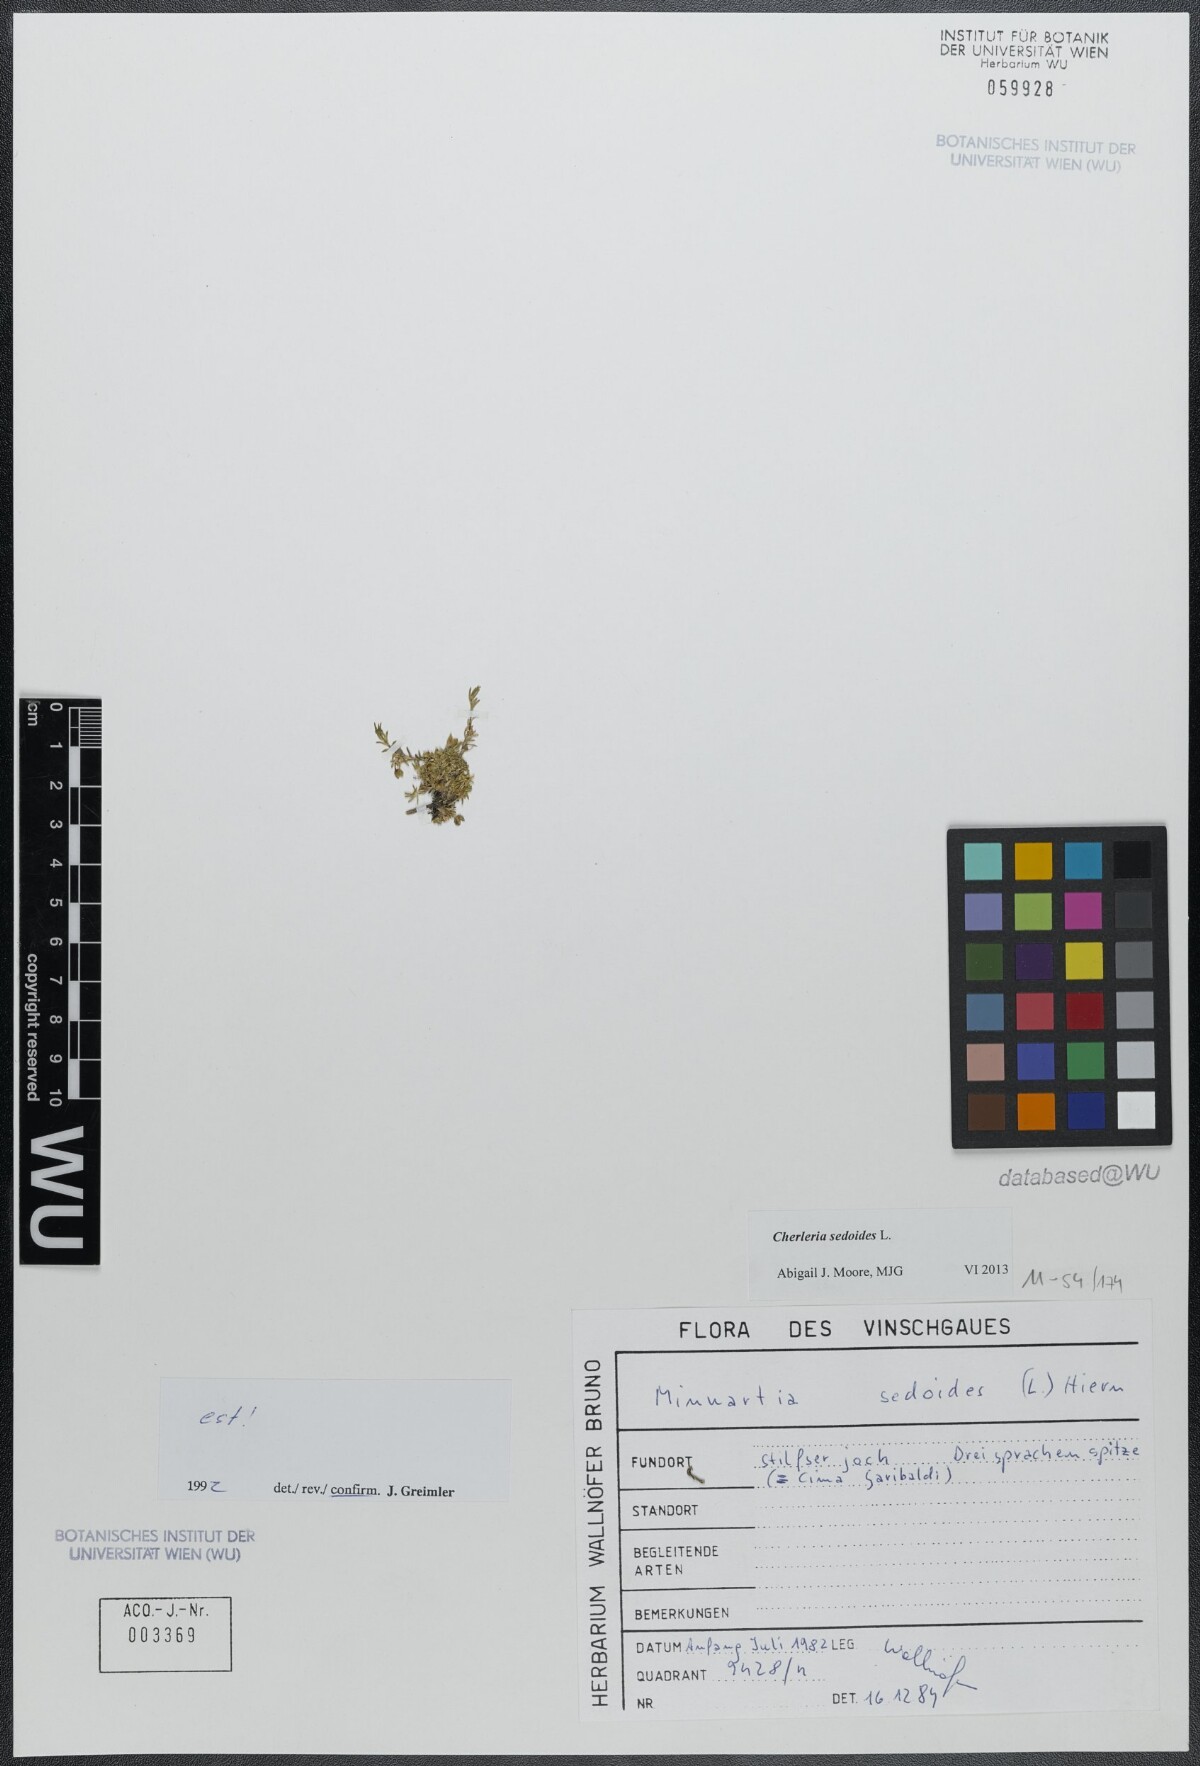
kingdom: Plantae
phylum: Tracheophyta
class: Magnoliopsida
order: Caryophyllales
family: Caryophyllaceae
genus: Cherleria
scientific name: Cherleria sedoides
